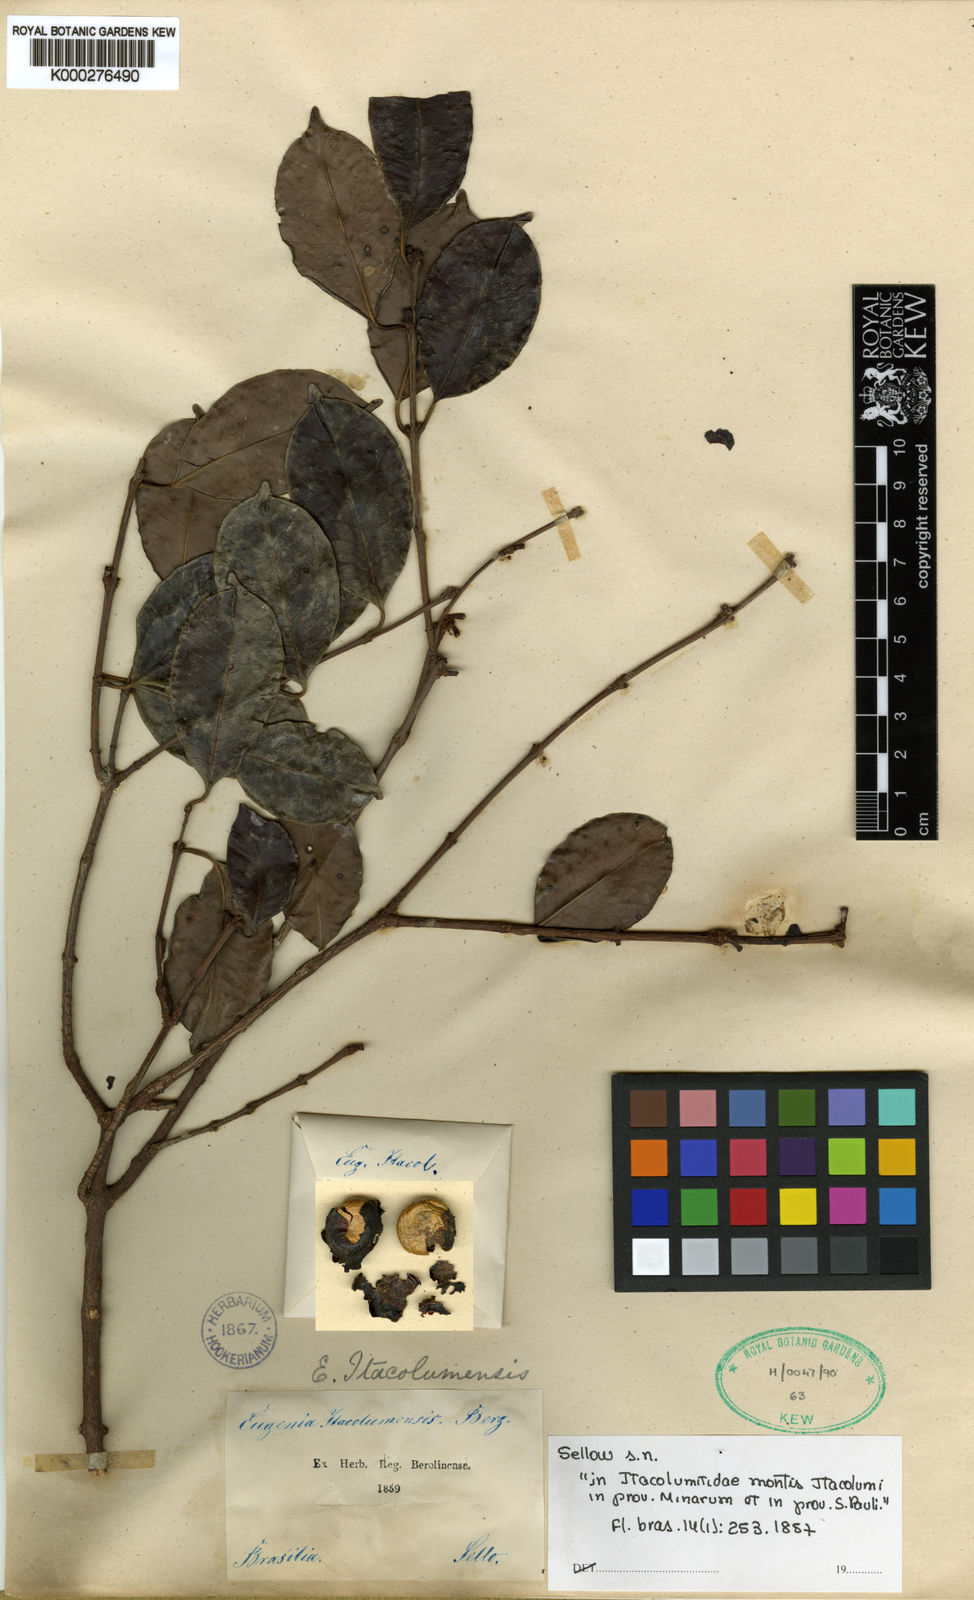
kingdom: Plantae
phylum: Tracheophyta
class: Magnoliopsida
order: Myrtales
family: Myrtaceae
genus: Eugenia
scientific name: Eugenia cerasiflora
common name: Cherry-of-the-rio-grande
